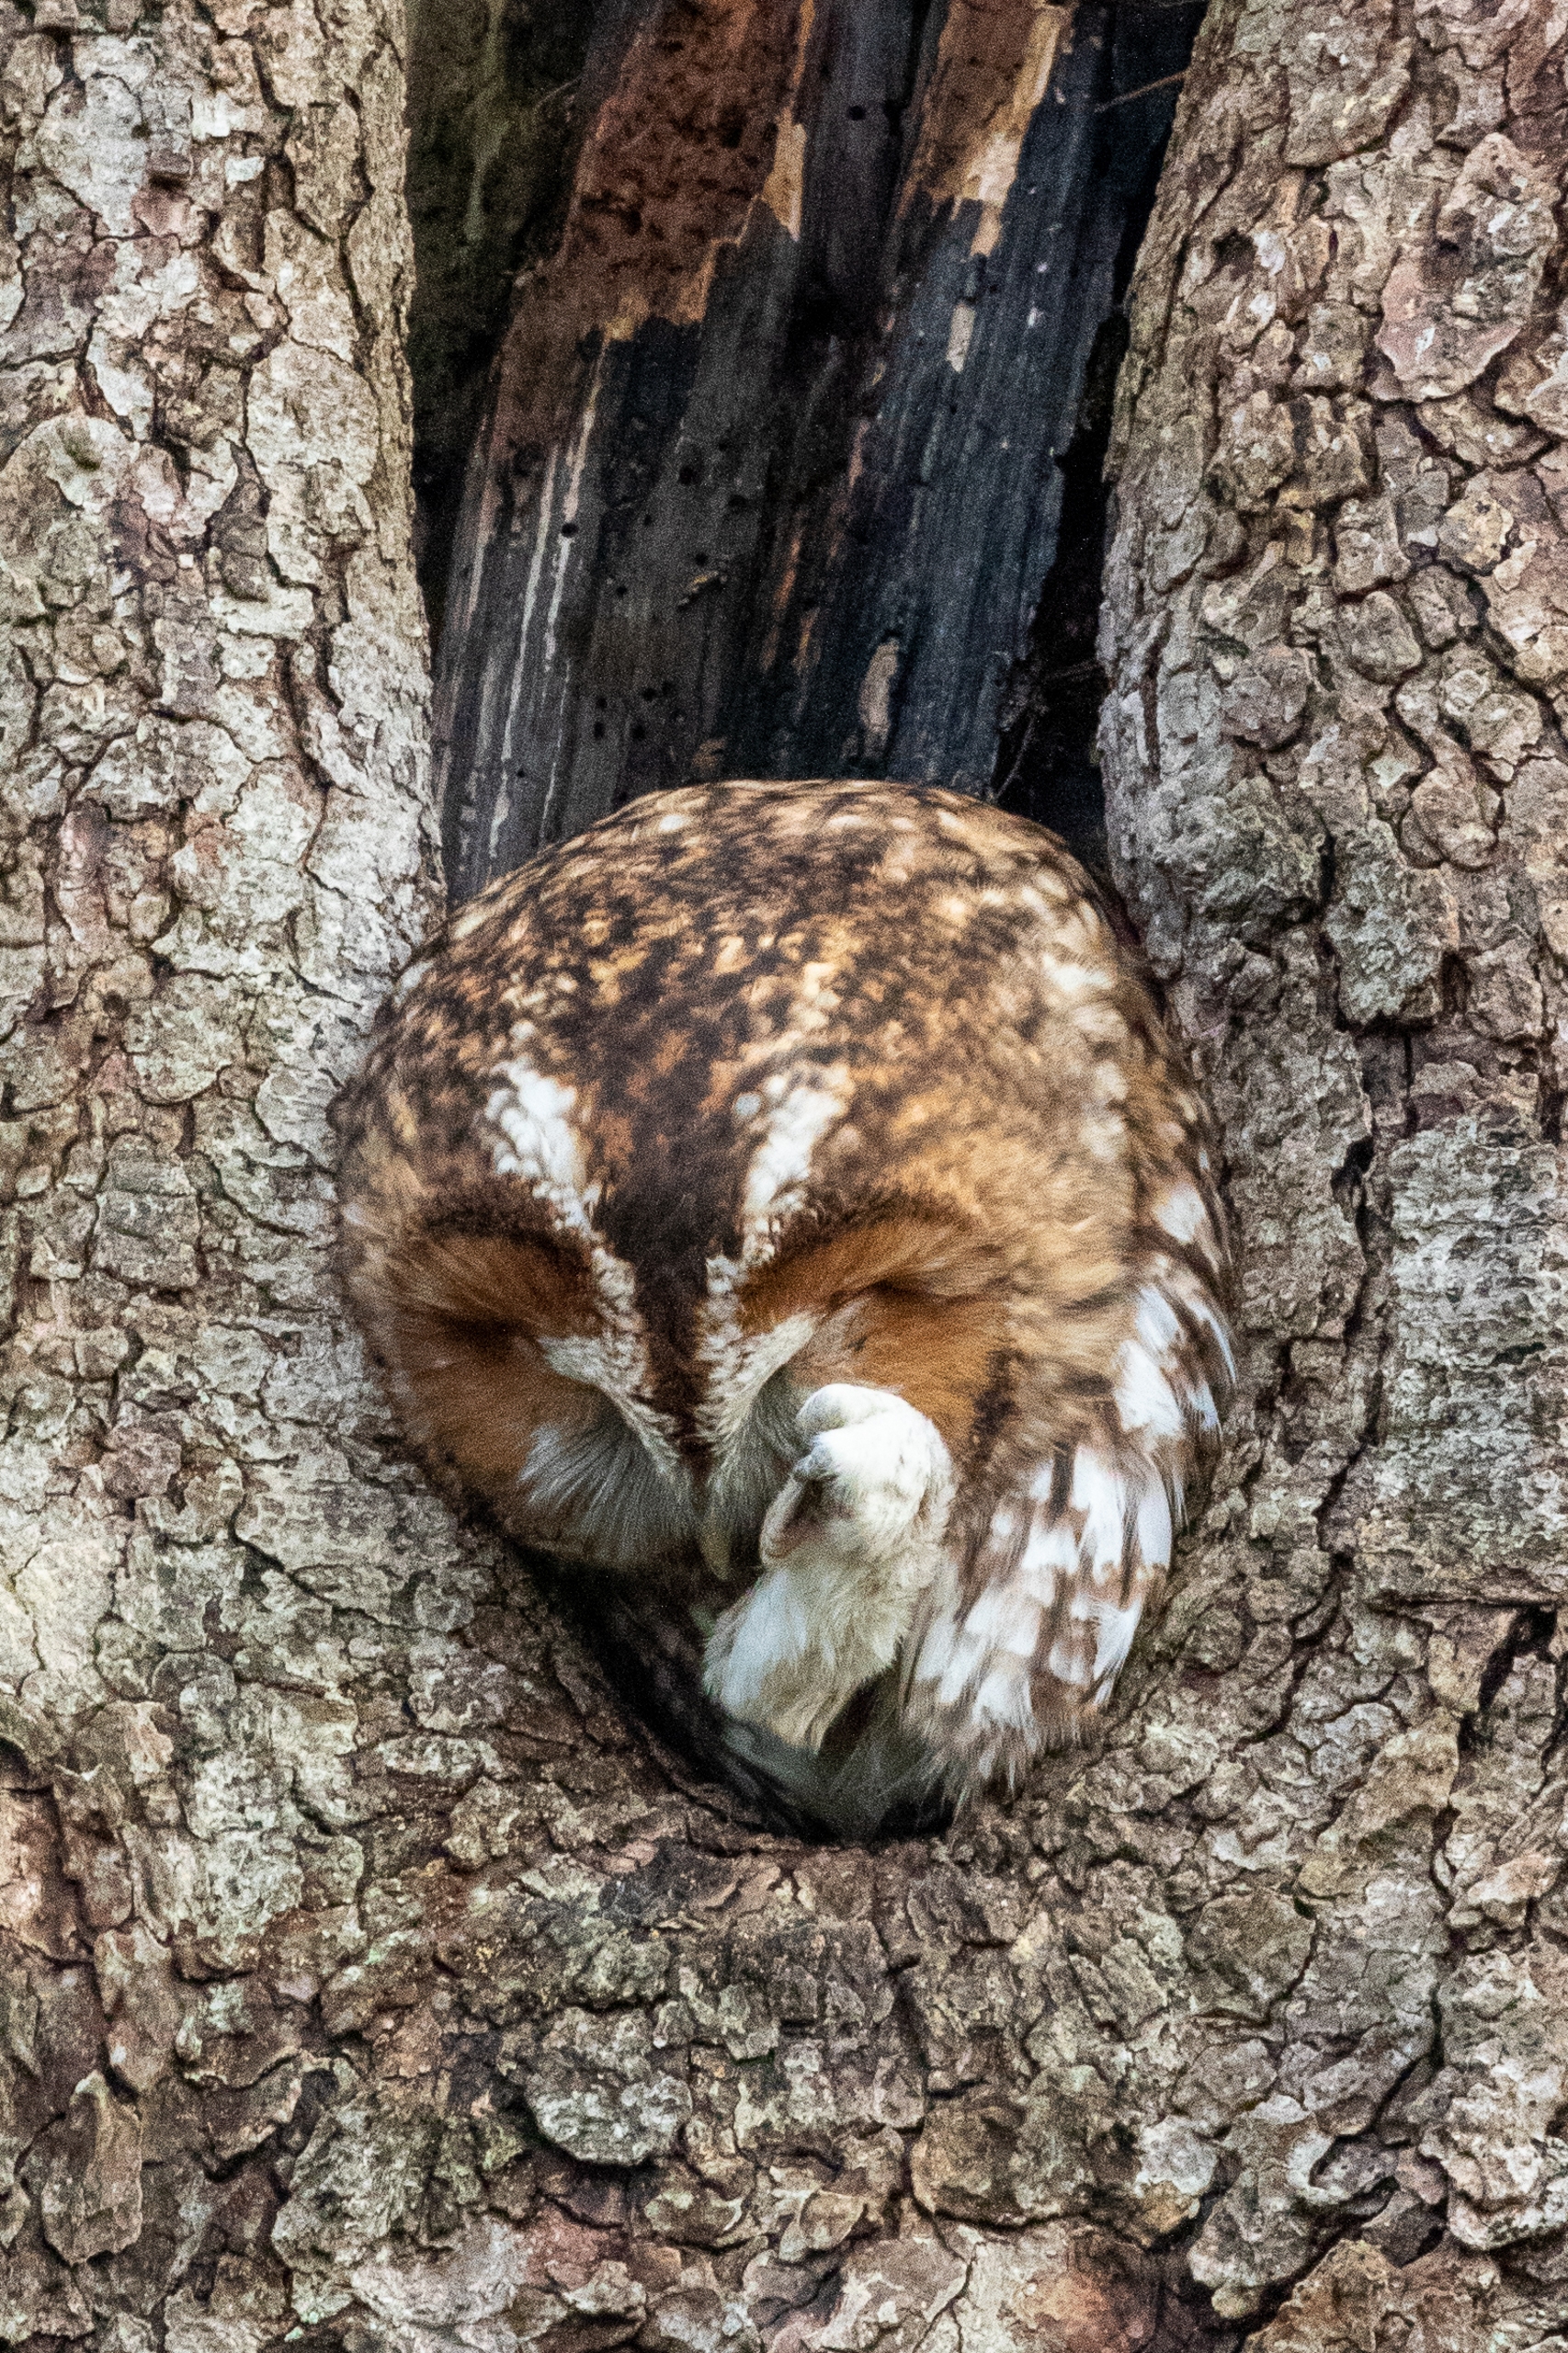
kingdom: Animalia
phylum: Chordata
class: Aves
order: Strigiformes
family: Strigidae
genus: Strix
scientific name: Strix aluco
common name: Natugle
